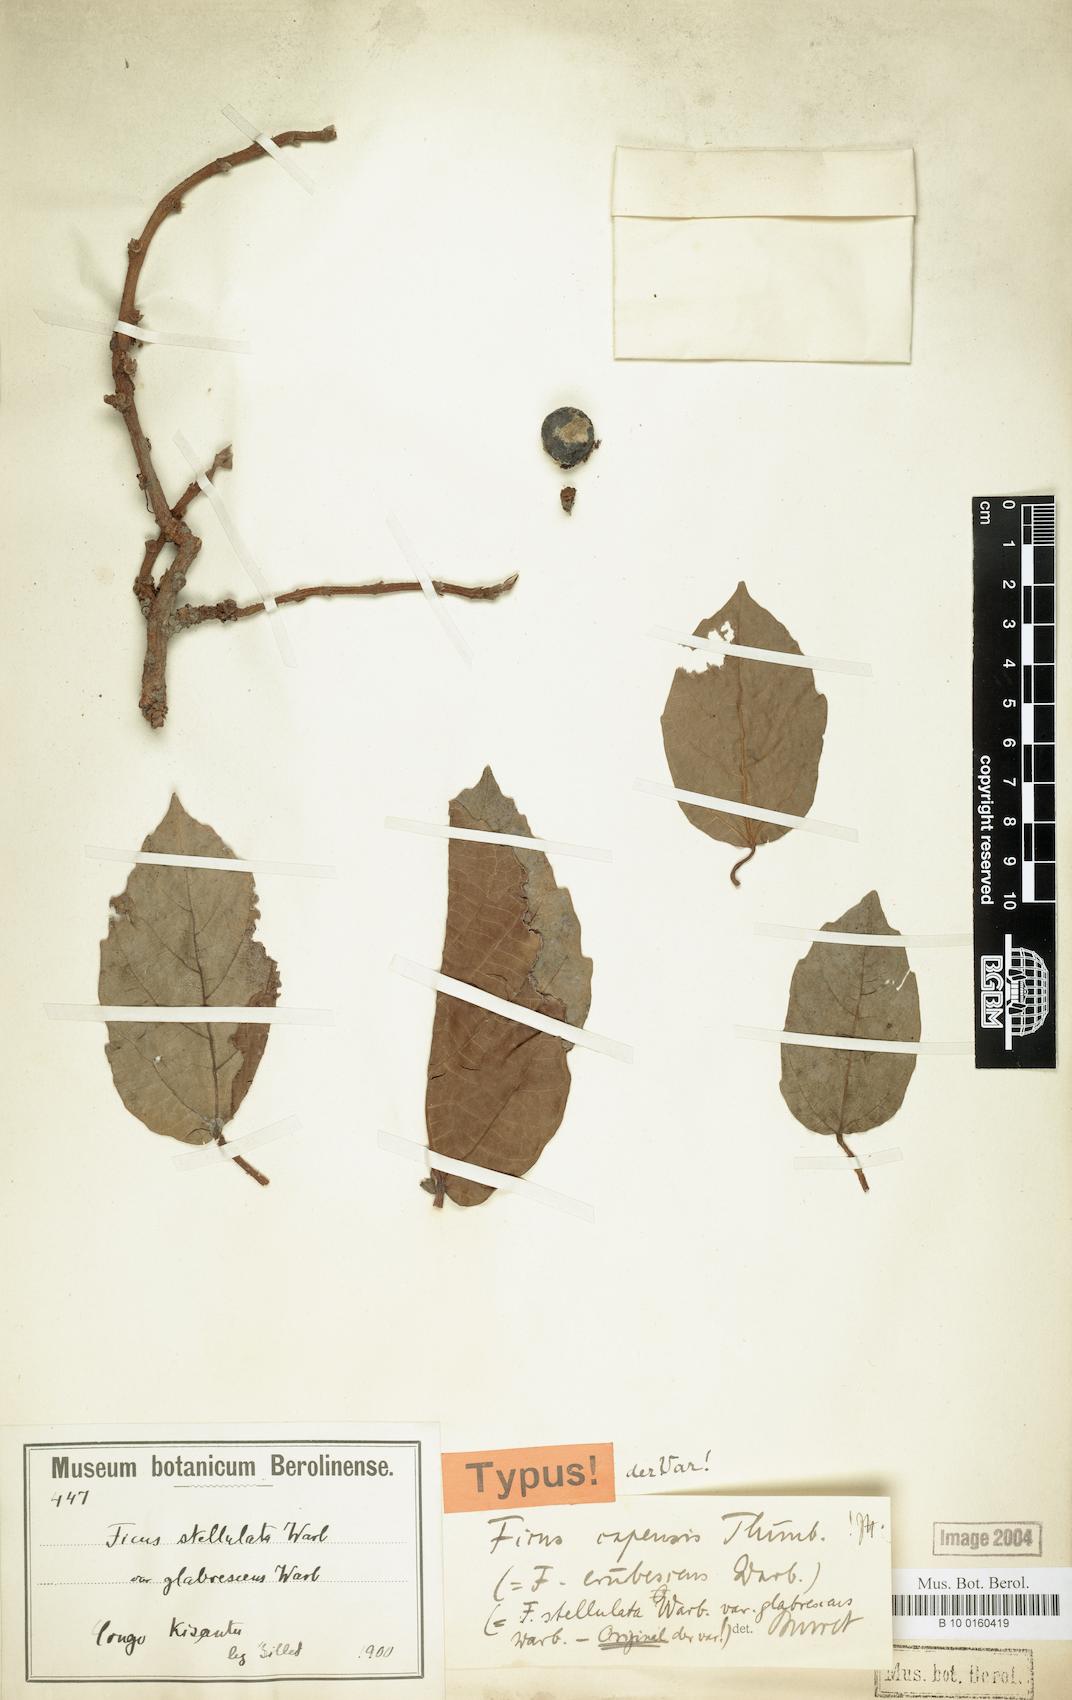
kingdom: Plantae
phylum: Tracheophyta
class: Magnoliopsida
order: Rosales
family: Moraceae
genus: Ficus
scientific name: Ficus sur
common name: Cape fig
